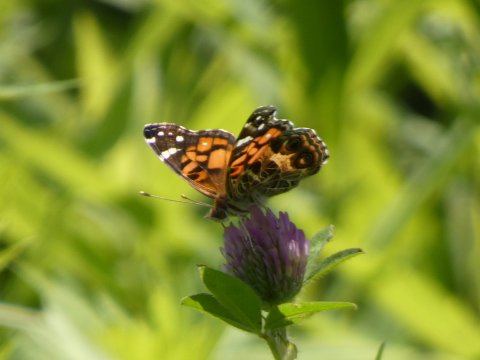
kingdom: Animalia
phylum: Arthropoda
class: Insecta
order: Lepidoptera
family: Nymphalidae
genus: Vanessa
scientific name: Vanessa virginiensis
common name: American Lady
